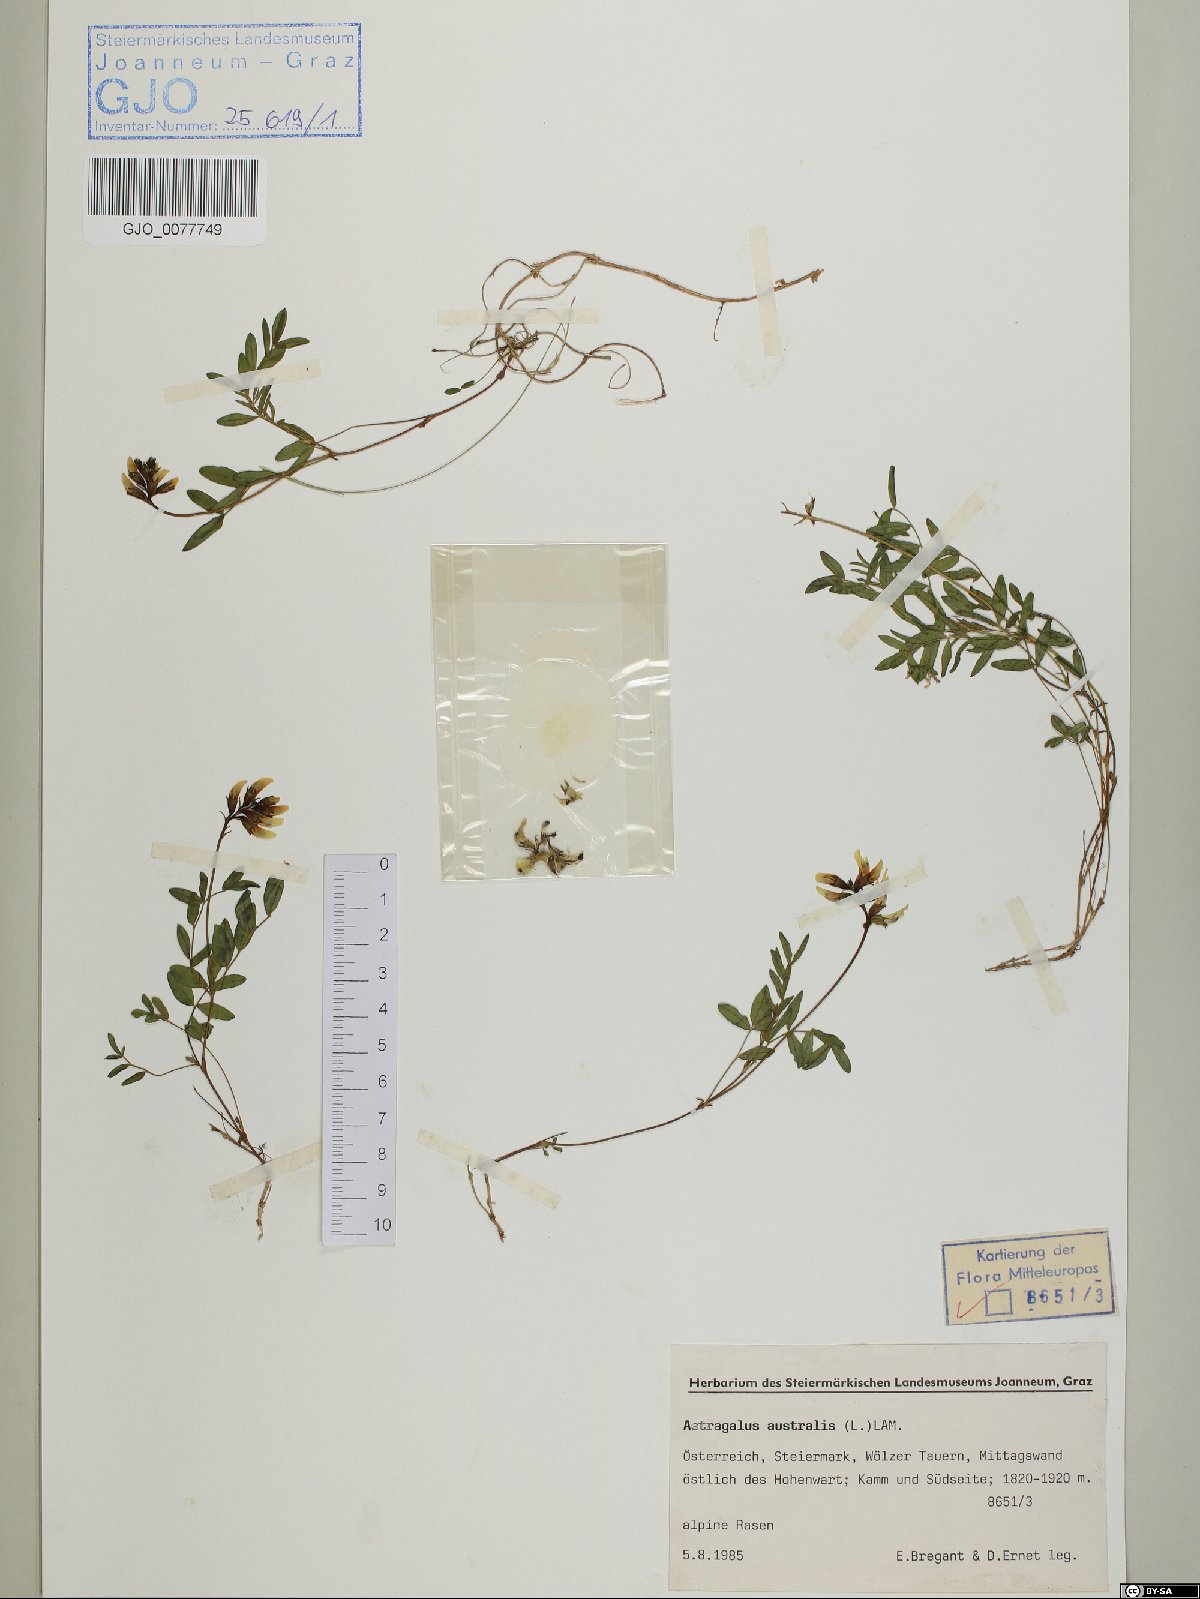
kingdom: Plantae
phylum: Tracheophyta
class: Magnoliopsida
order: Fabales
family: Fabaceae
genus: Astragalus
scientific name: Astragalus australis
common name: Indian milk-vetch
